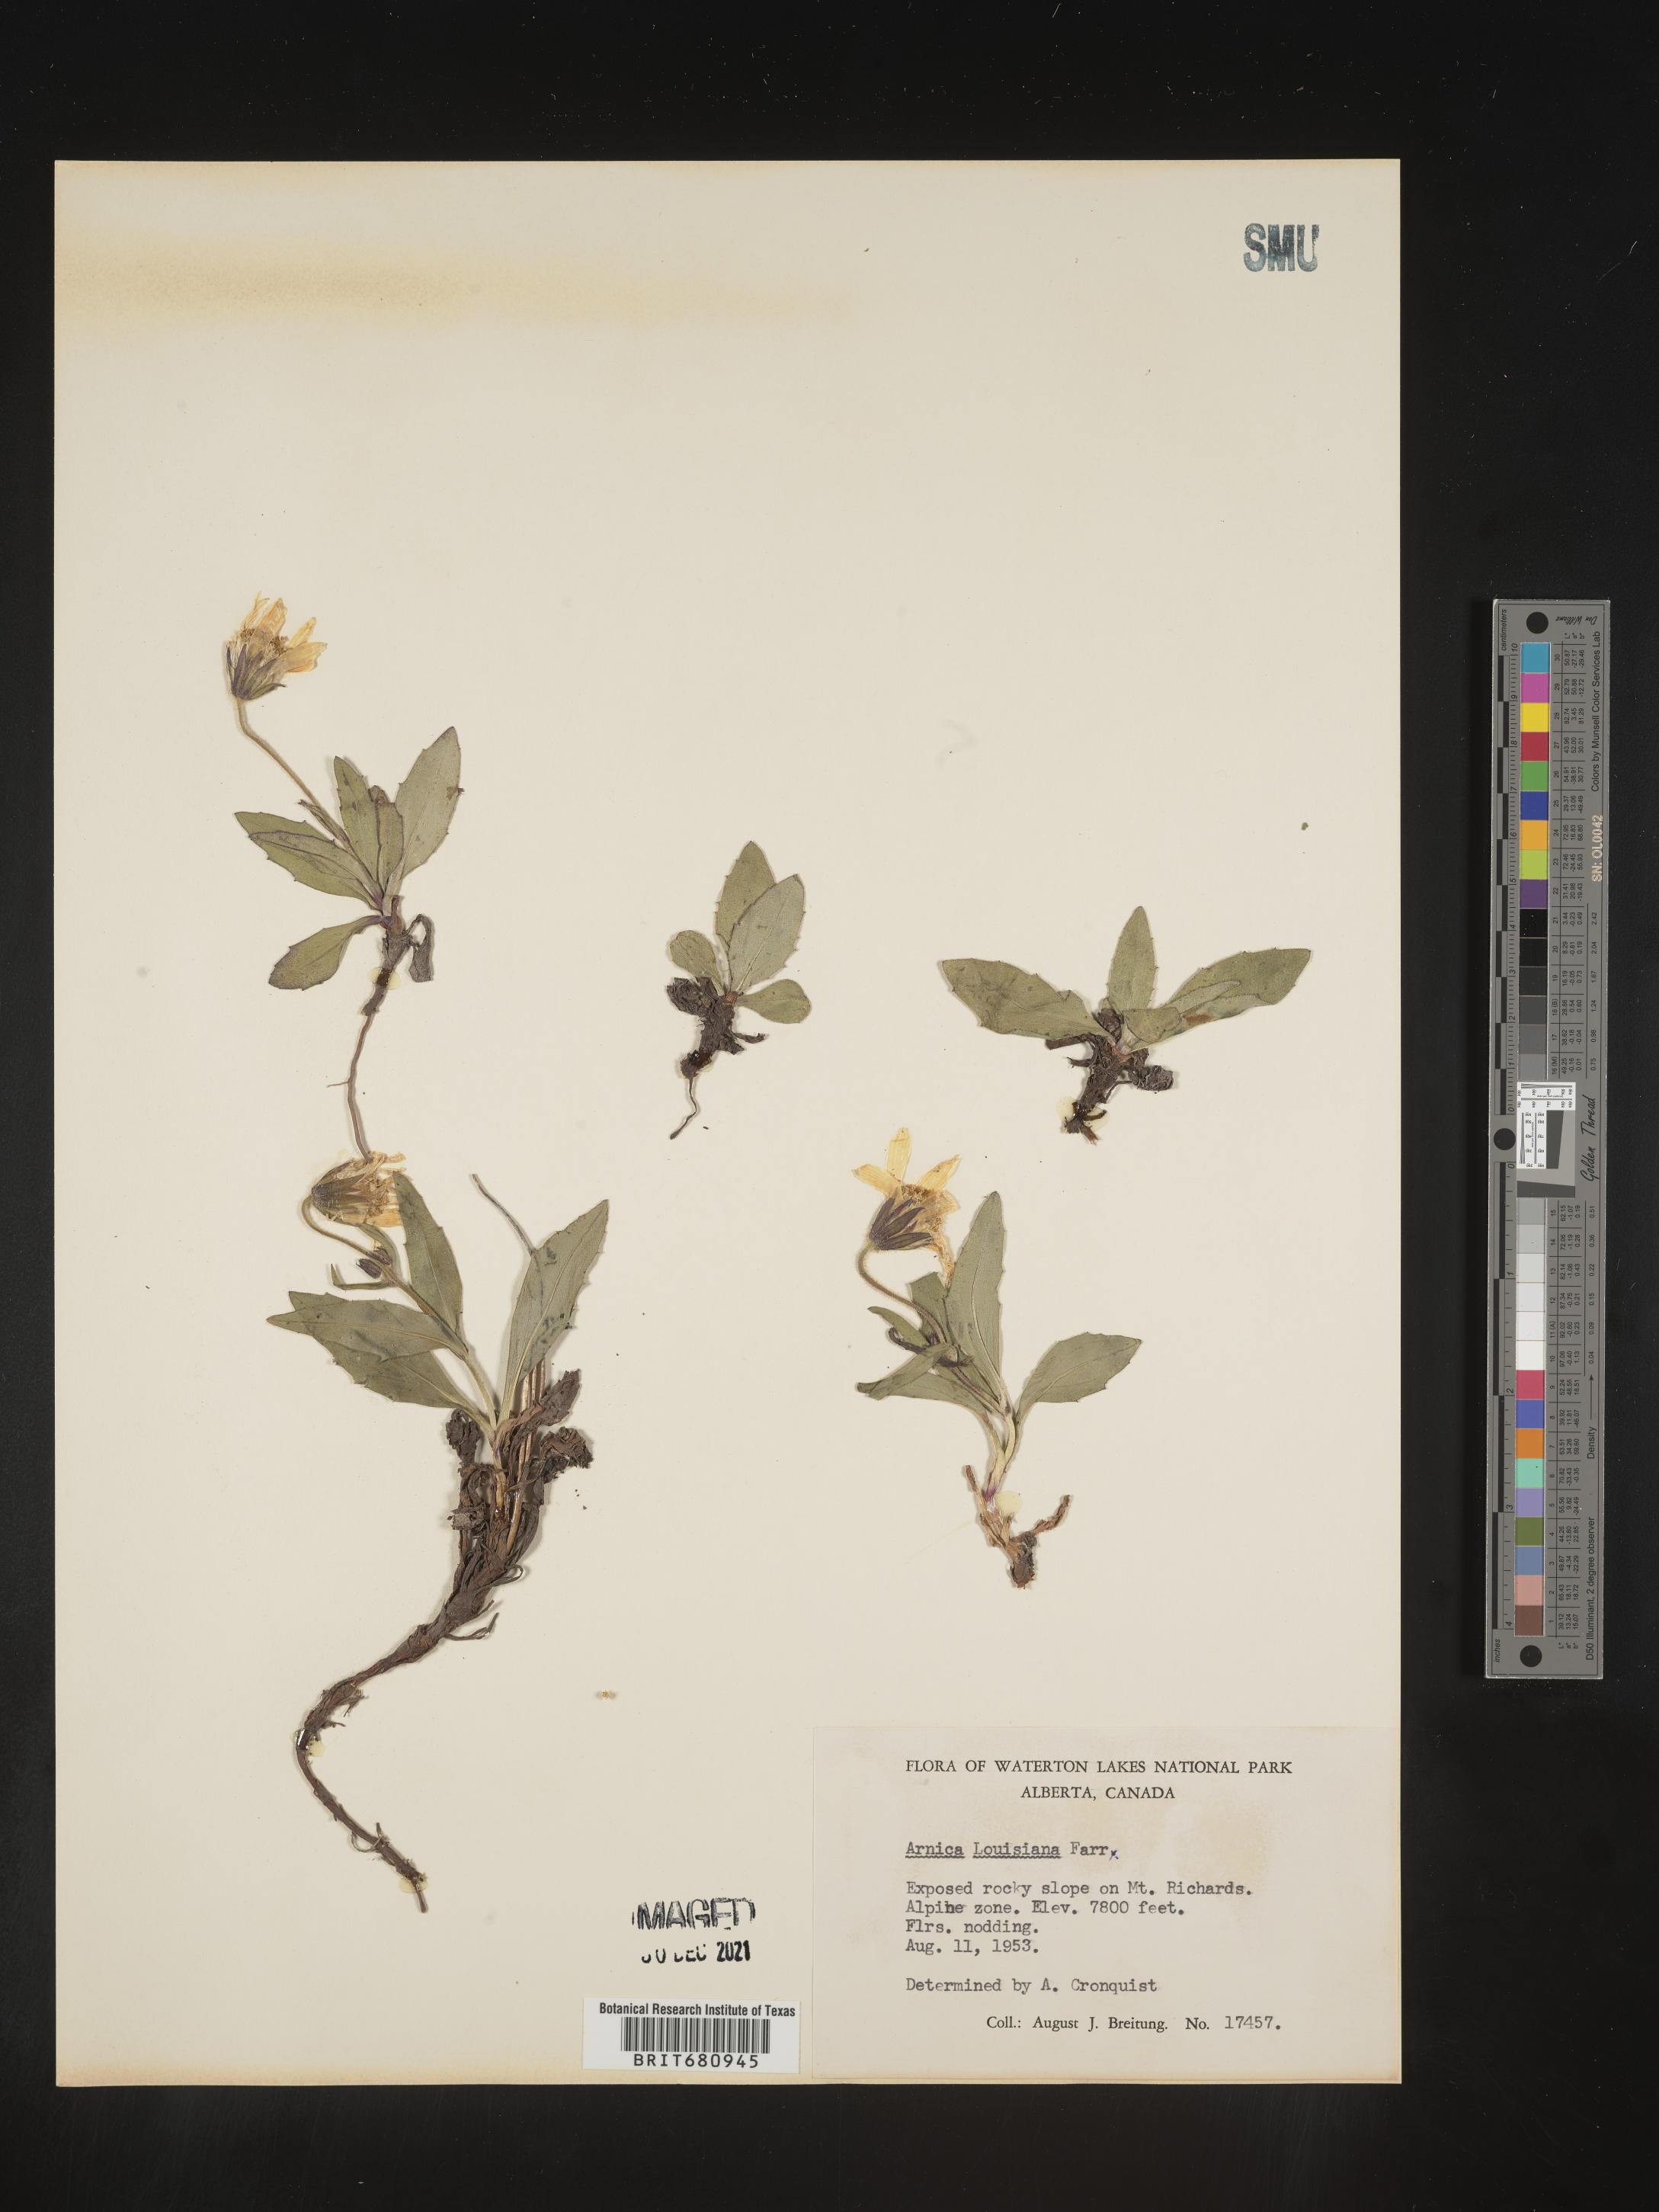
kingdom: Plantae
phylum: Tracheophyta
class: Magnoliopsida
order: Asterales
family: Asteraceae
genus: Arnica
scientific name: Arnica louiseana
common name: Lake louise arnica
